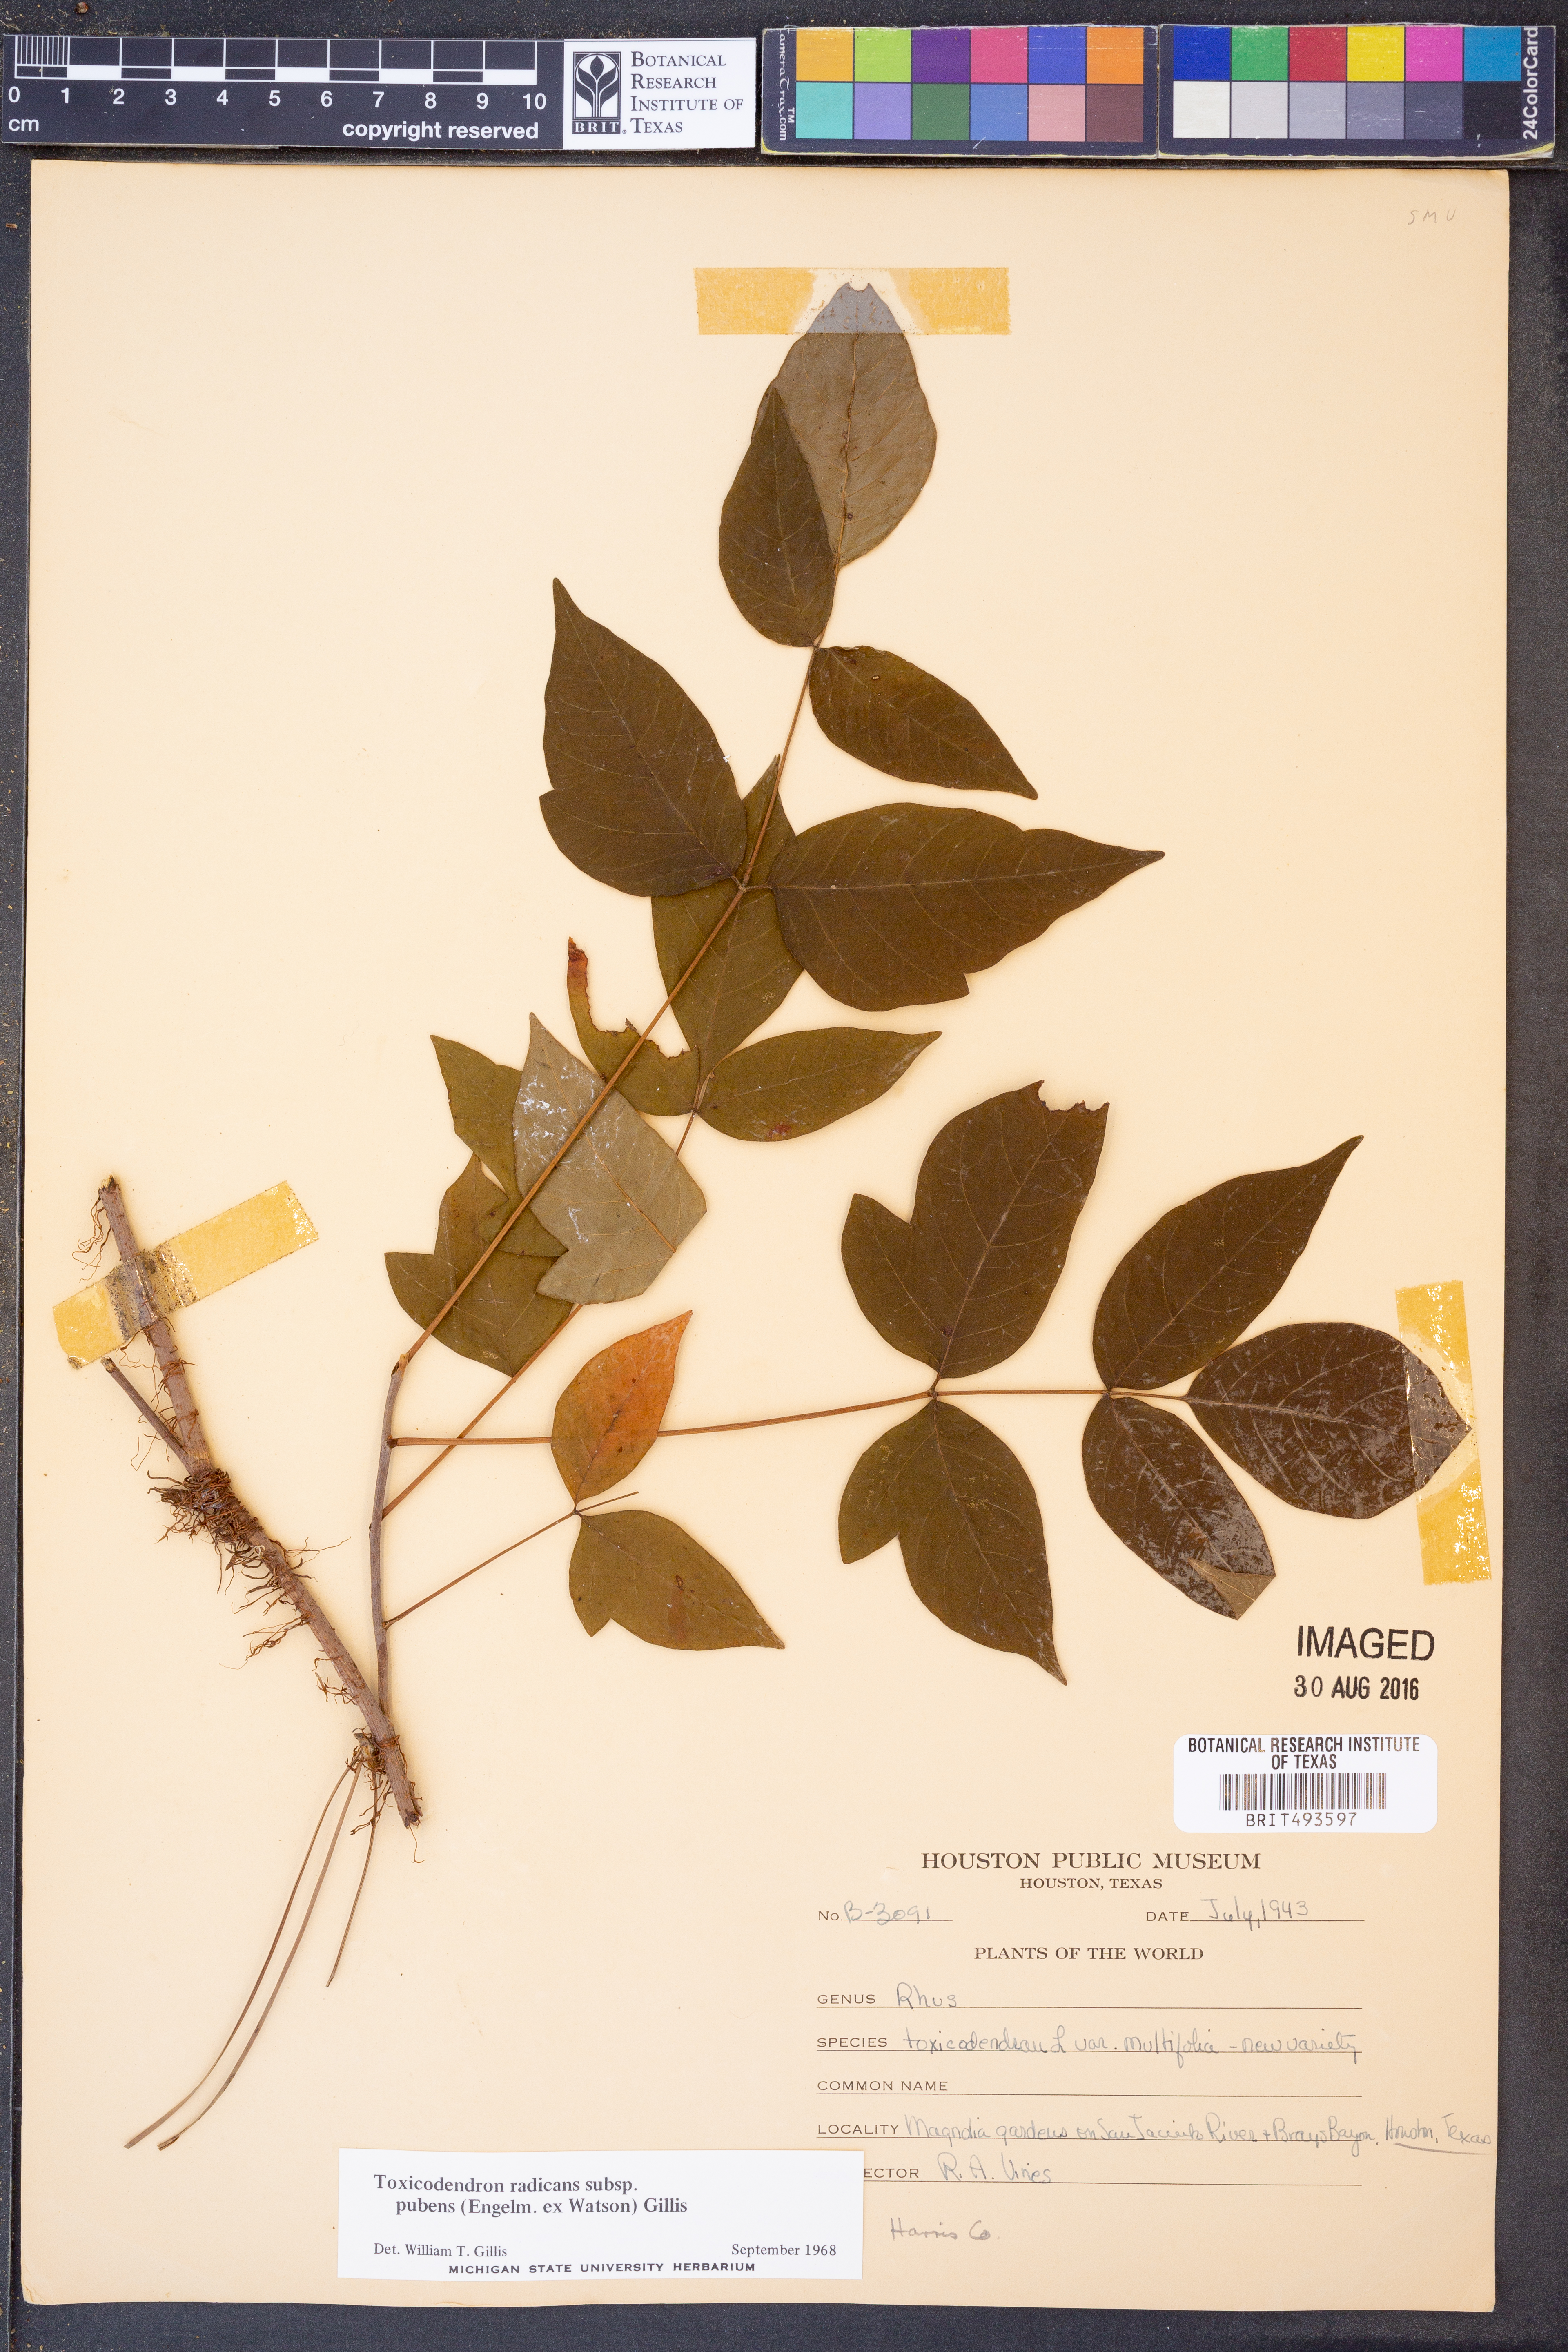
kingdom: Plantae
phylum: Tracheophyta
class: Magnoliopsida
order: Sapindales
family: Anacardiaceae
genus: Toxicodendron
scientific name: Toxicodendron radicans
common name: Poison ivy
